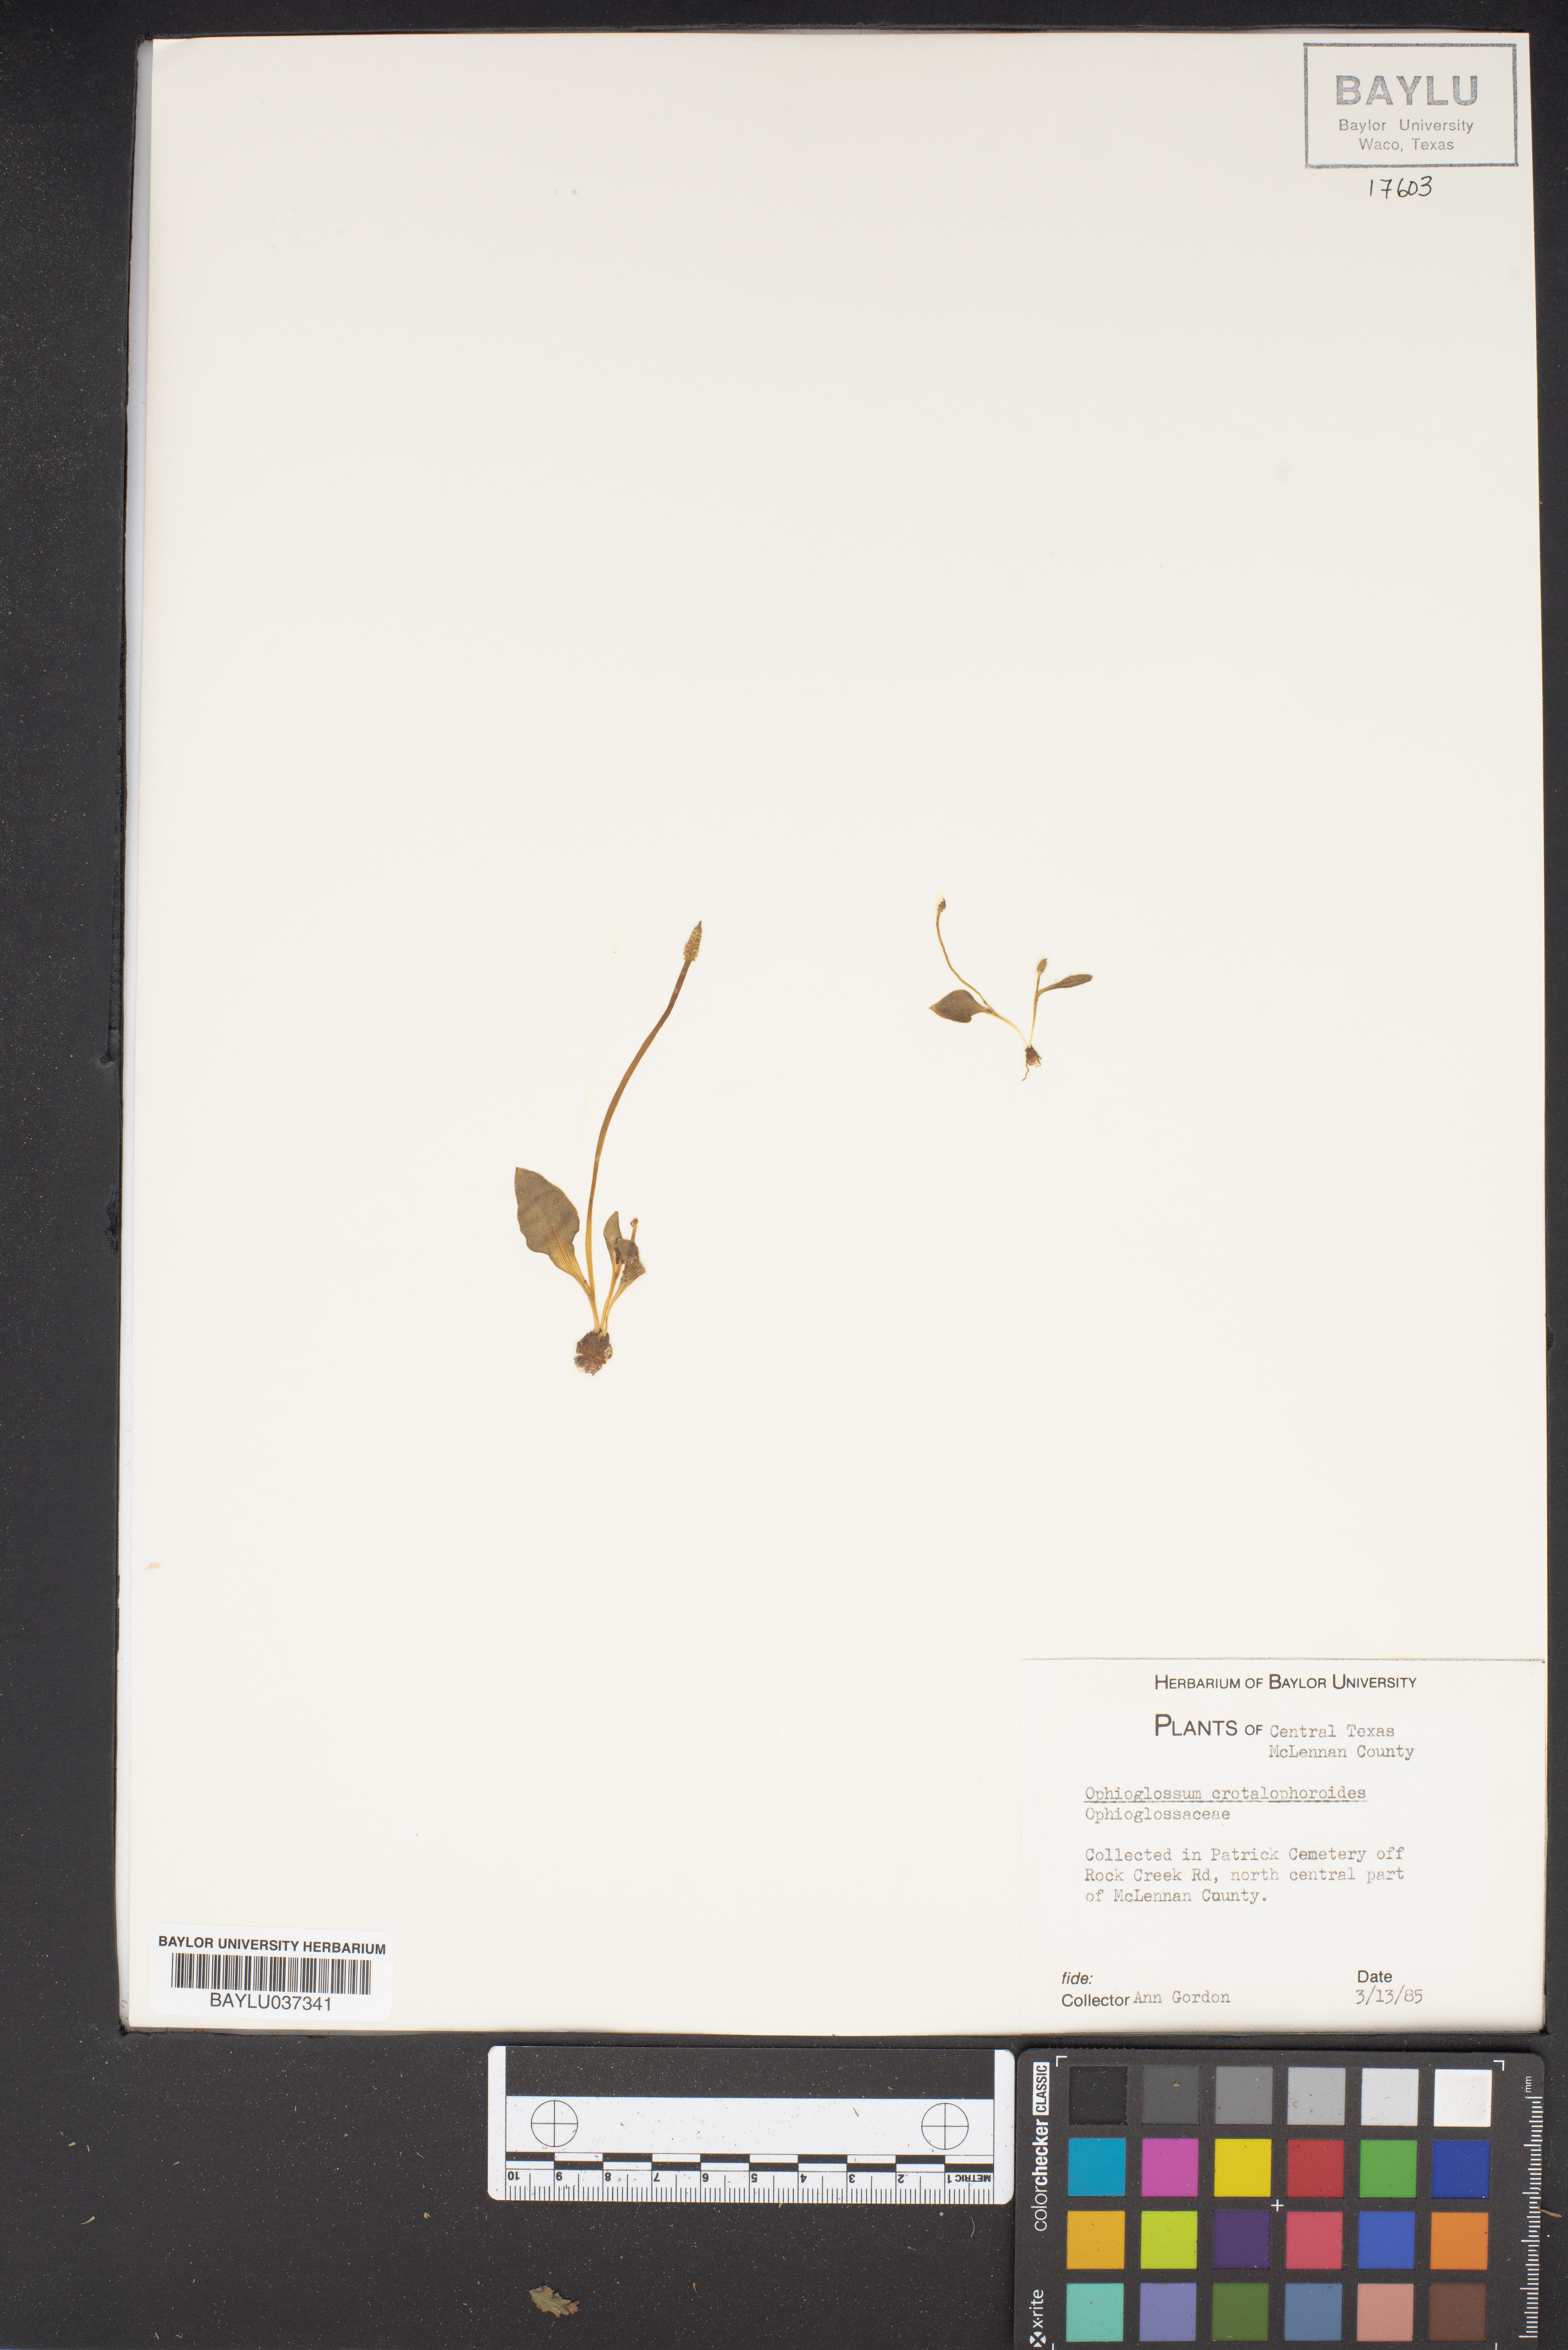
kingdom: Plantae
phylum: Tracheophyta
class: Polypodiopsida
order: Ophioglossales
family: Ophioglossaceae
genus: Ophioglossum
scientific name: Ophioglossum crotalophoroides
